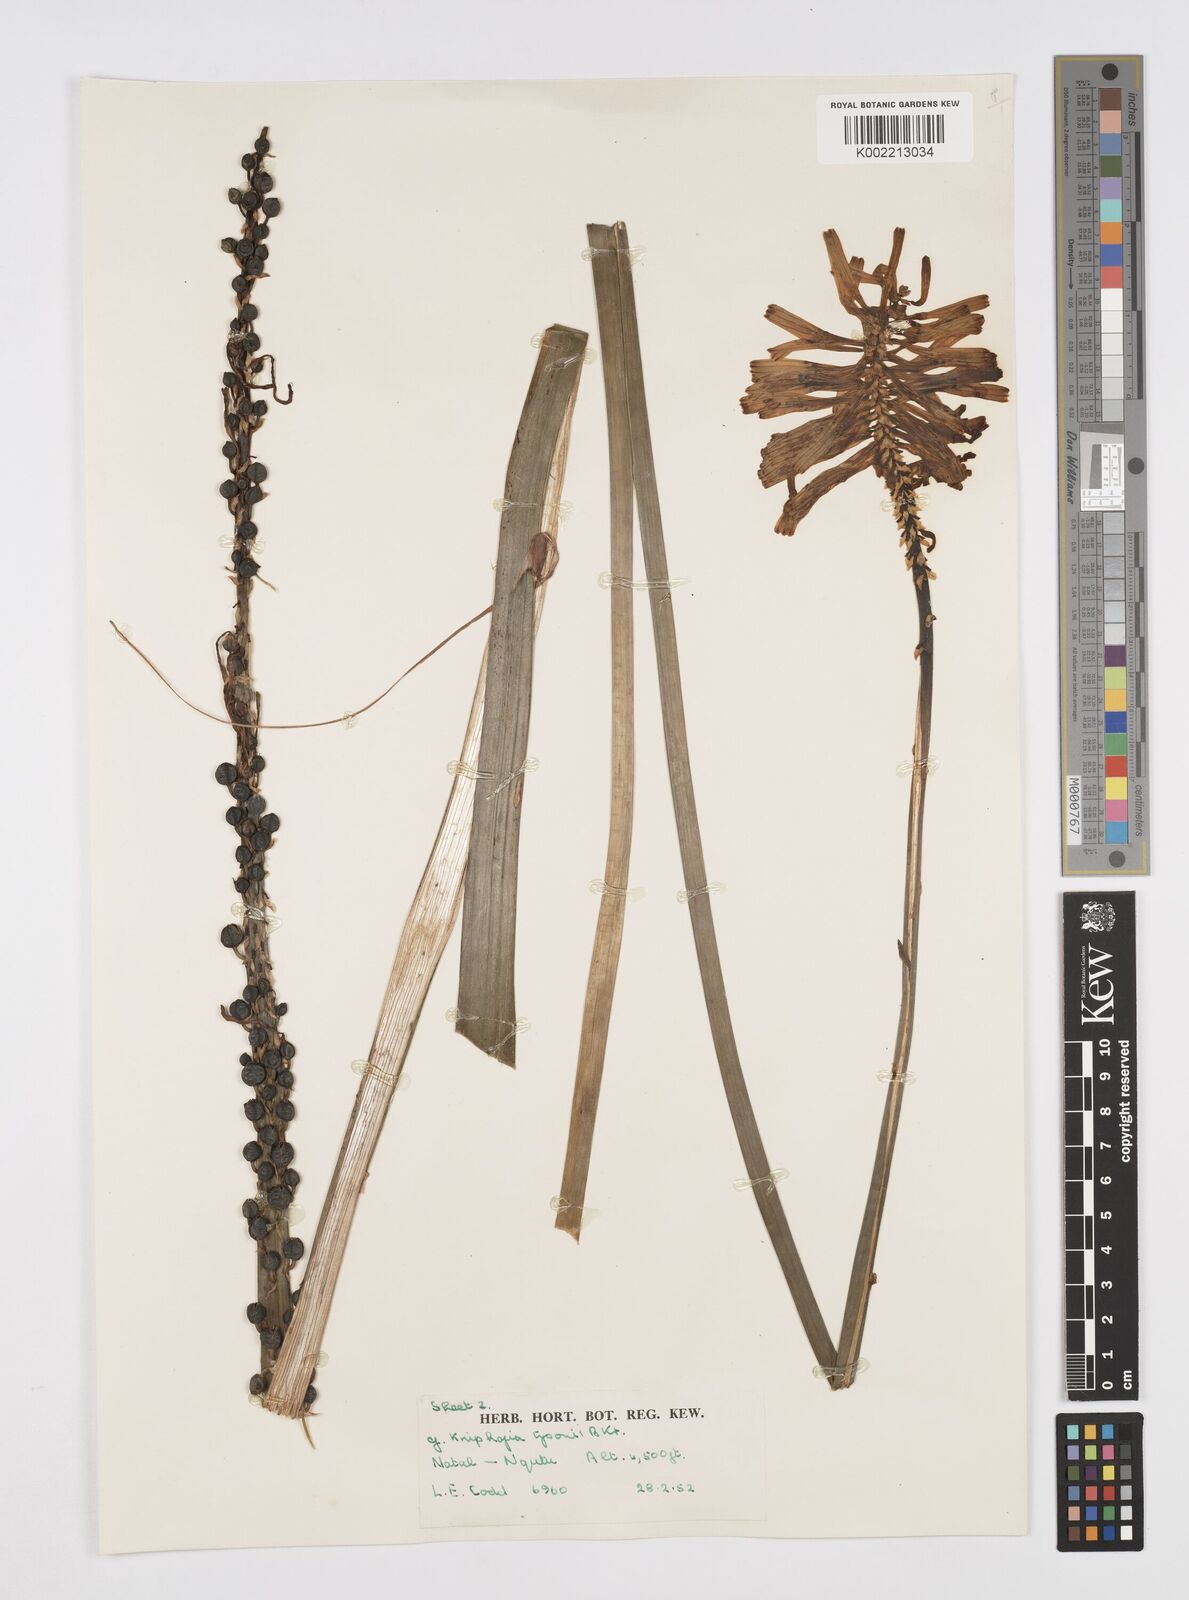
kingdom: Plantae
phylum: Tracheophyta
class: Liliopsida
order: Asparagales
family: Asphodelaceae
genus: Kniphofia
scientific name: Kniphofia tysonii
